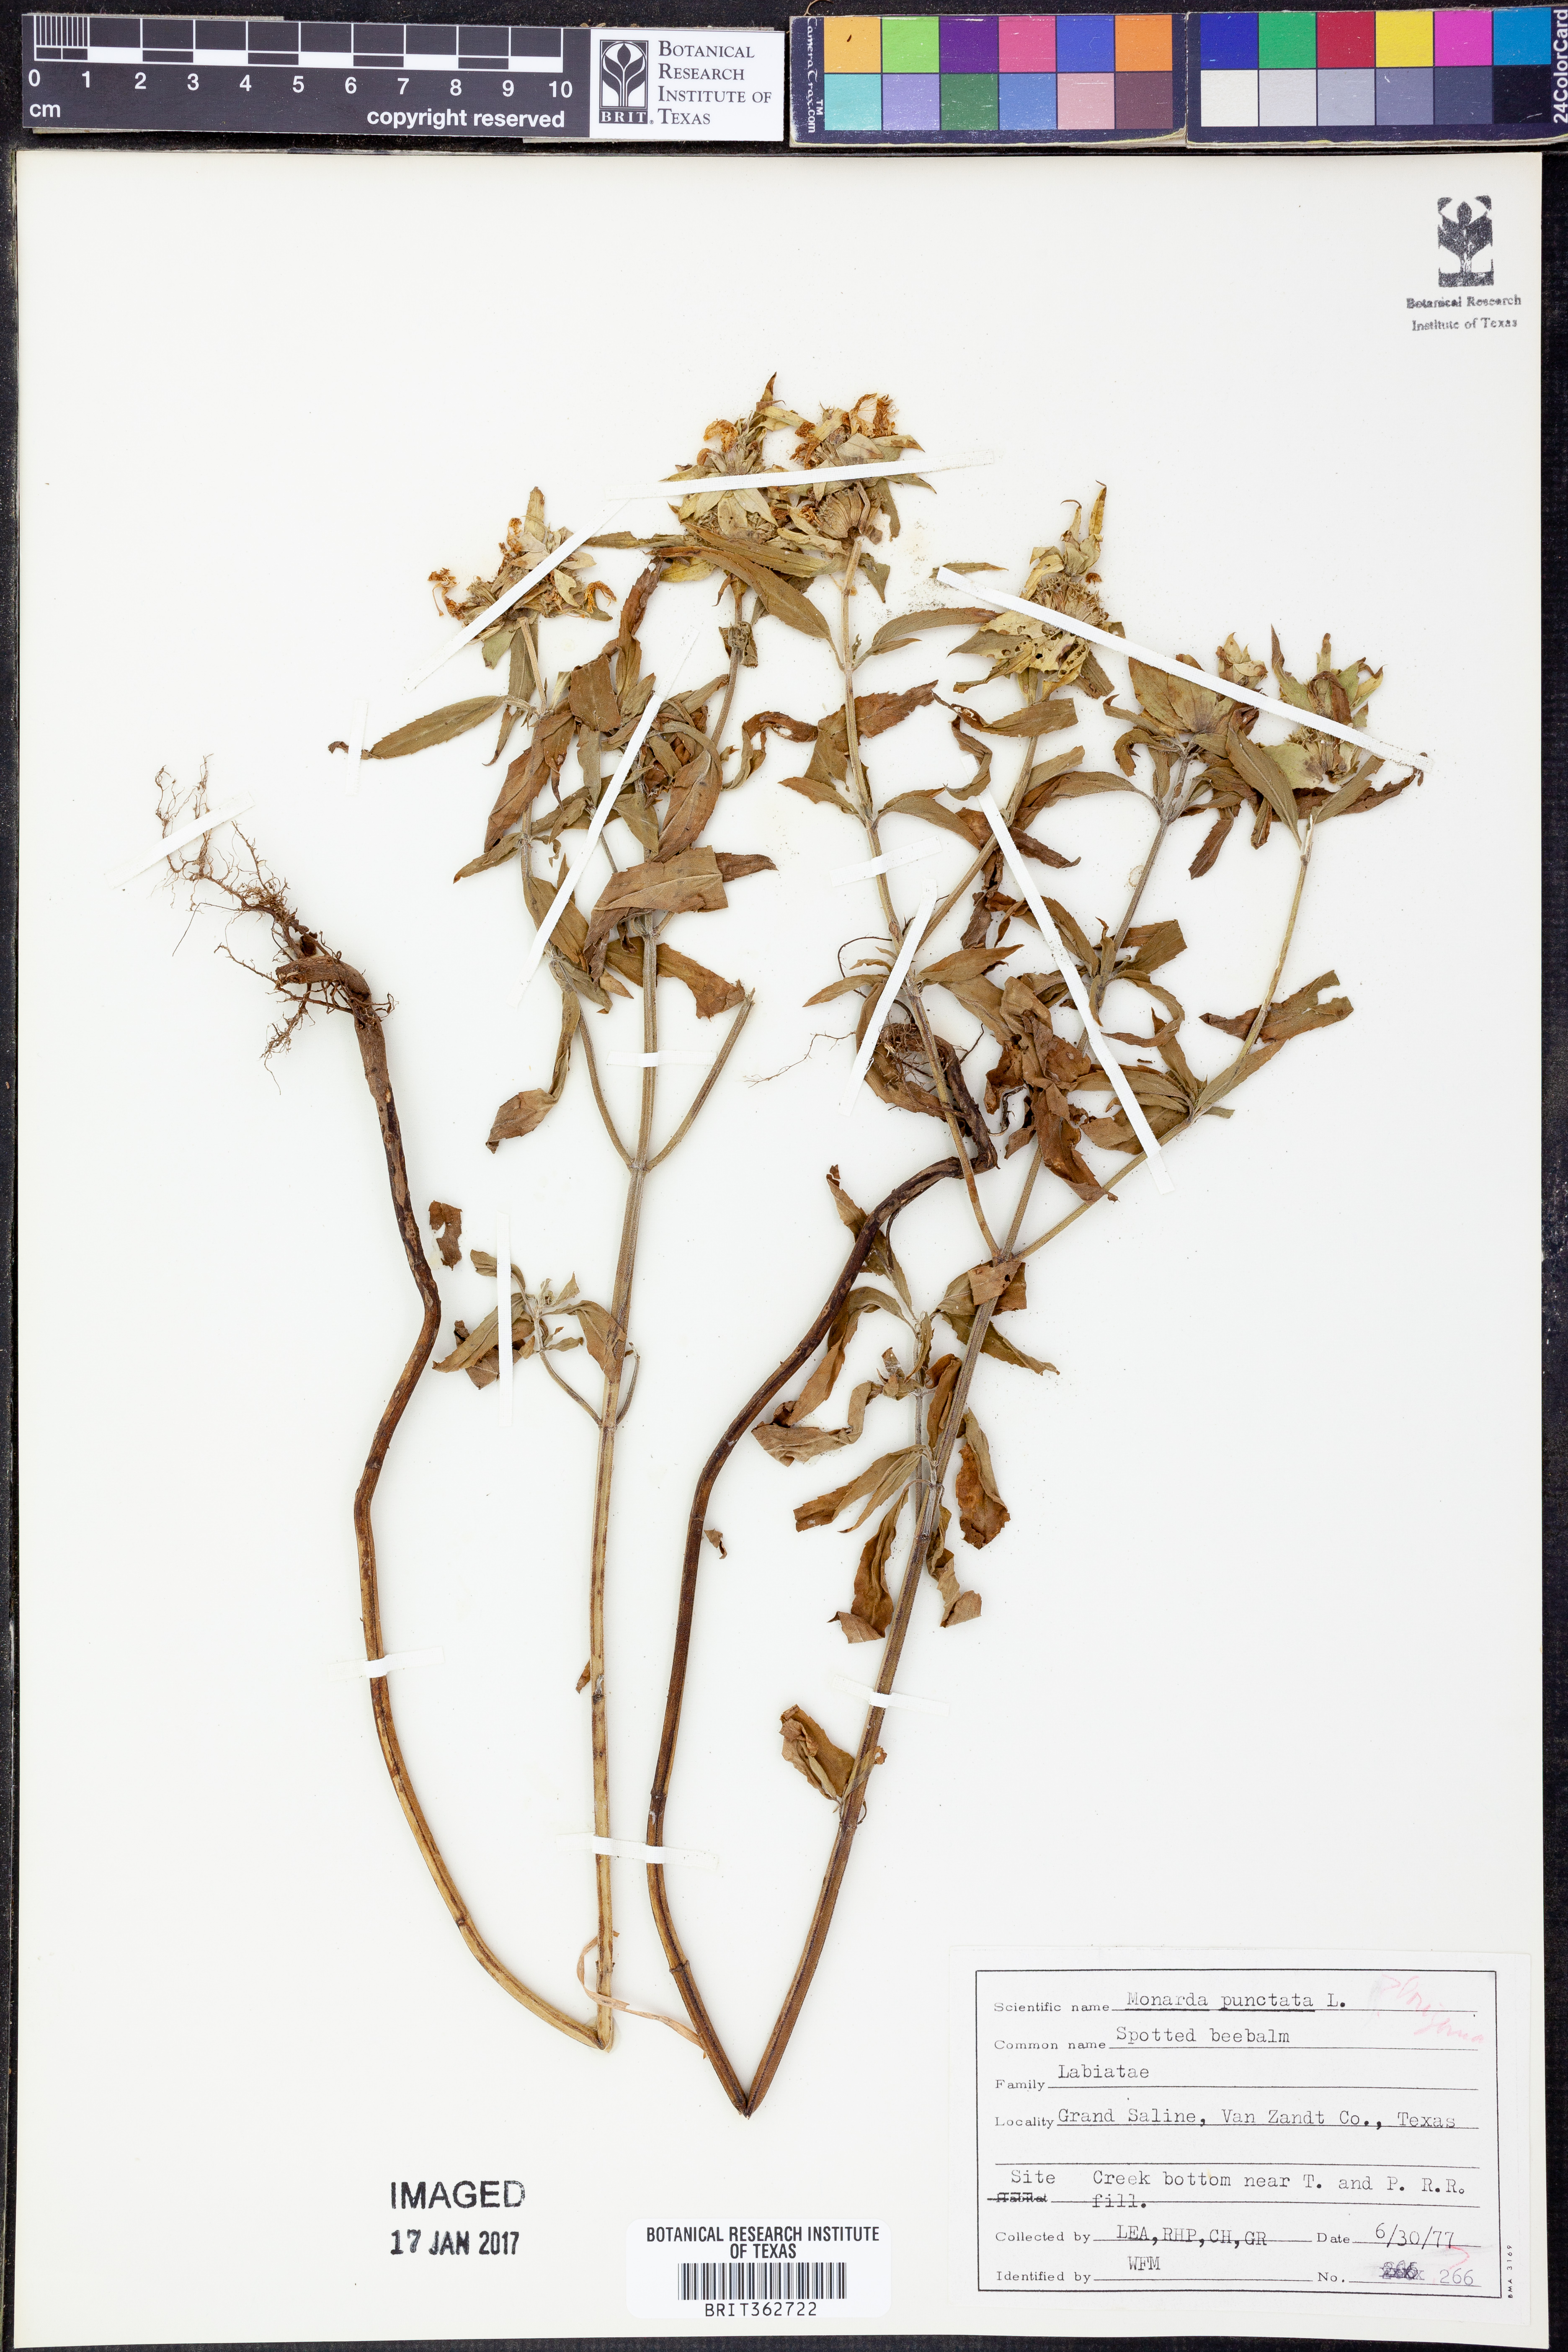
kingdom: Plantae
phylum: Tracheophyta
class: Magnoliopsida
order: Lamiales
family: Lamiaceae
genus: Monarda
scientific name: Monarda punctata
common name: Dotted monarda
